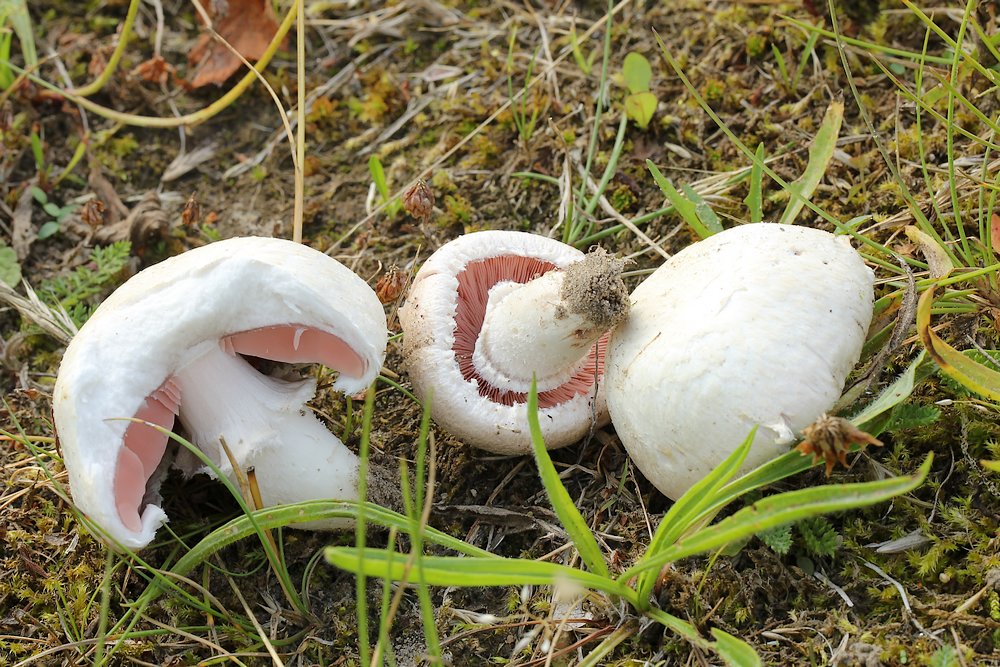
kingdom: Fungi
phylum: Basidiomycota
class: Agaricomycetes
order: Agaricales
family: Agaricaceae
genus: Agaricus
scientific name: Agaricus campestris
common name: mark-champignon
